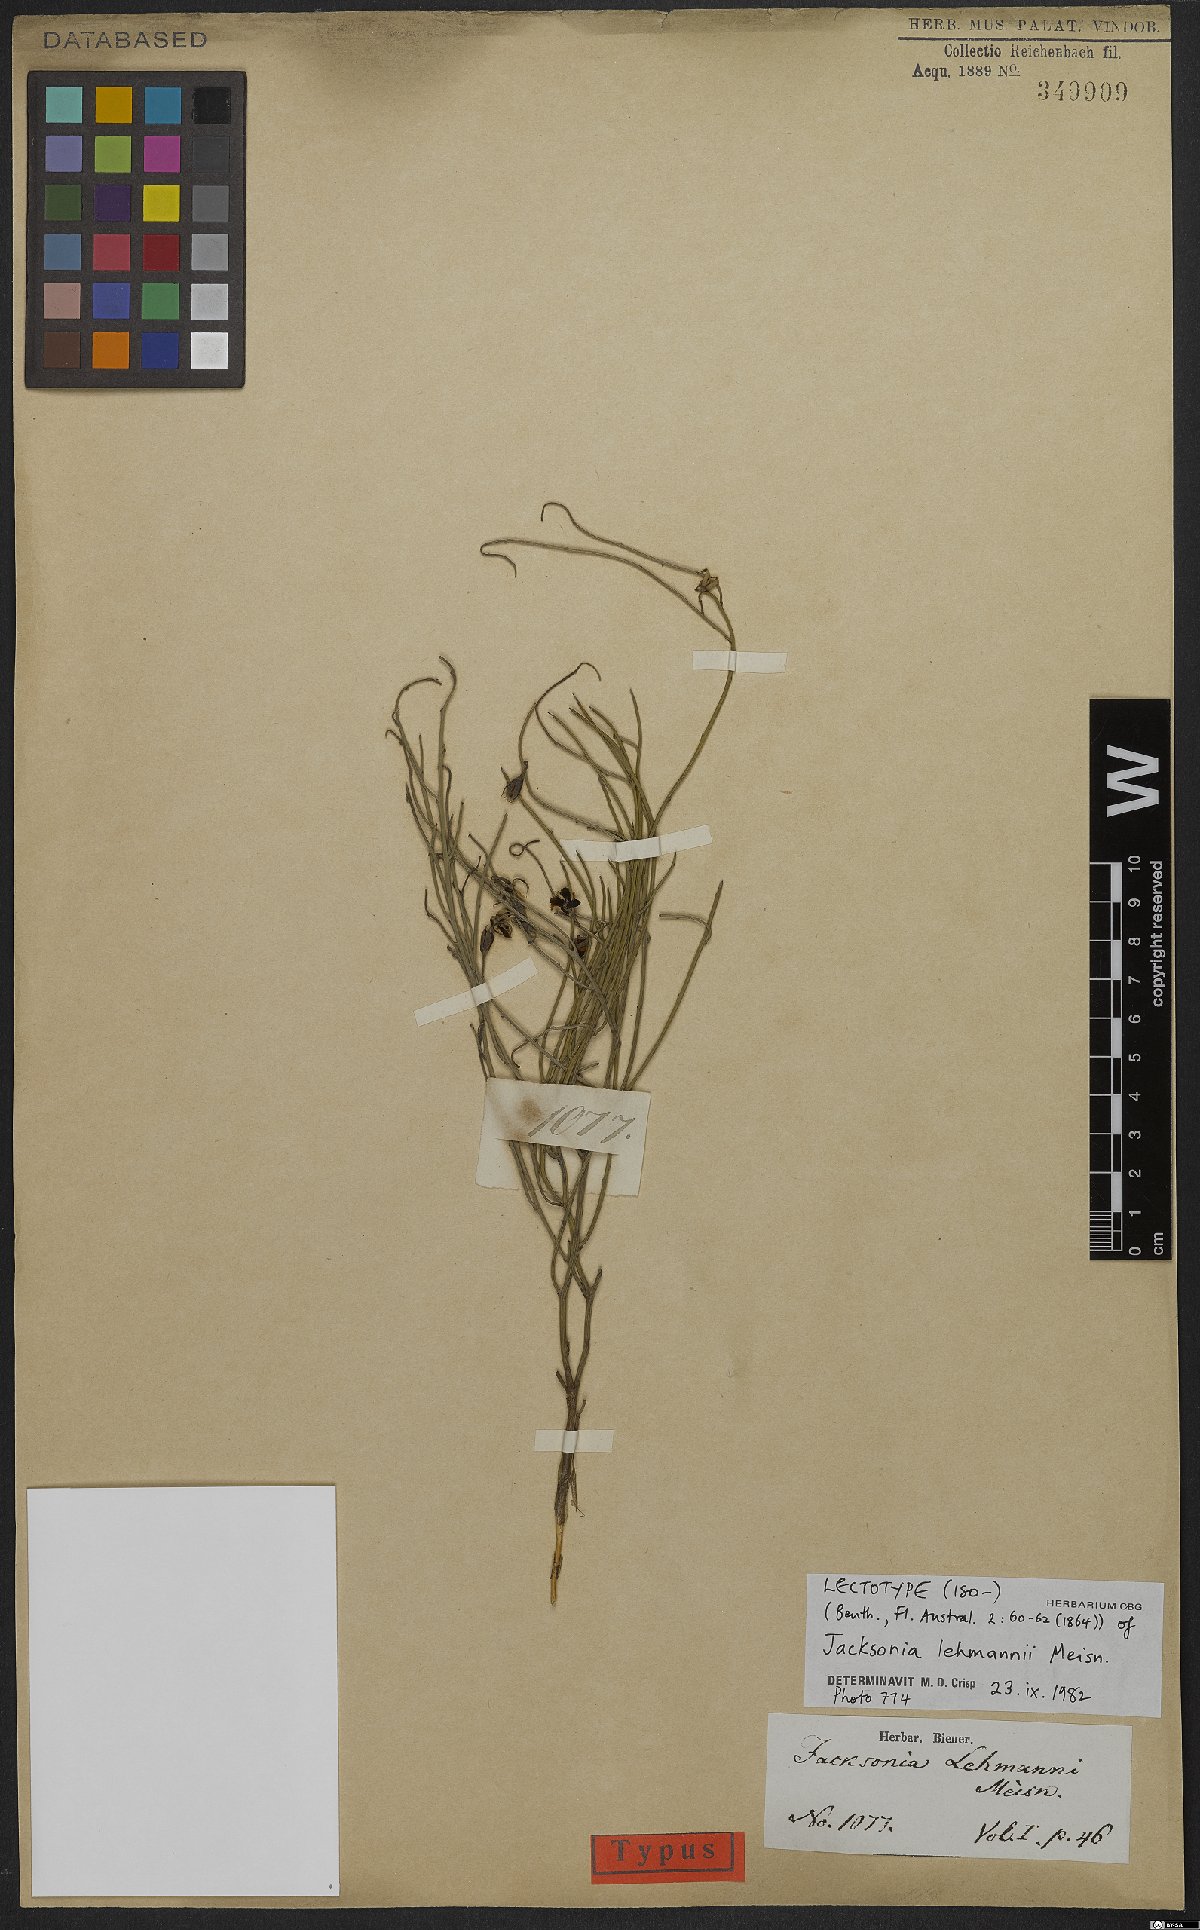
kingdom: Plantae
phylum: Tracheophyta
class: Magnoliopsida
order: Fabales
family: Fabaceae
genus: Jacksonia
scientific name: Jacksonia lehmannii
